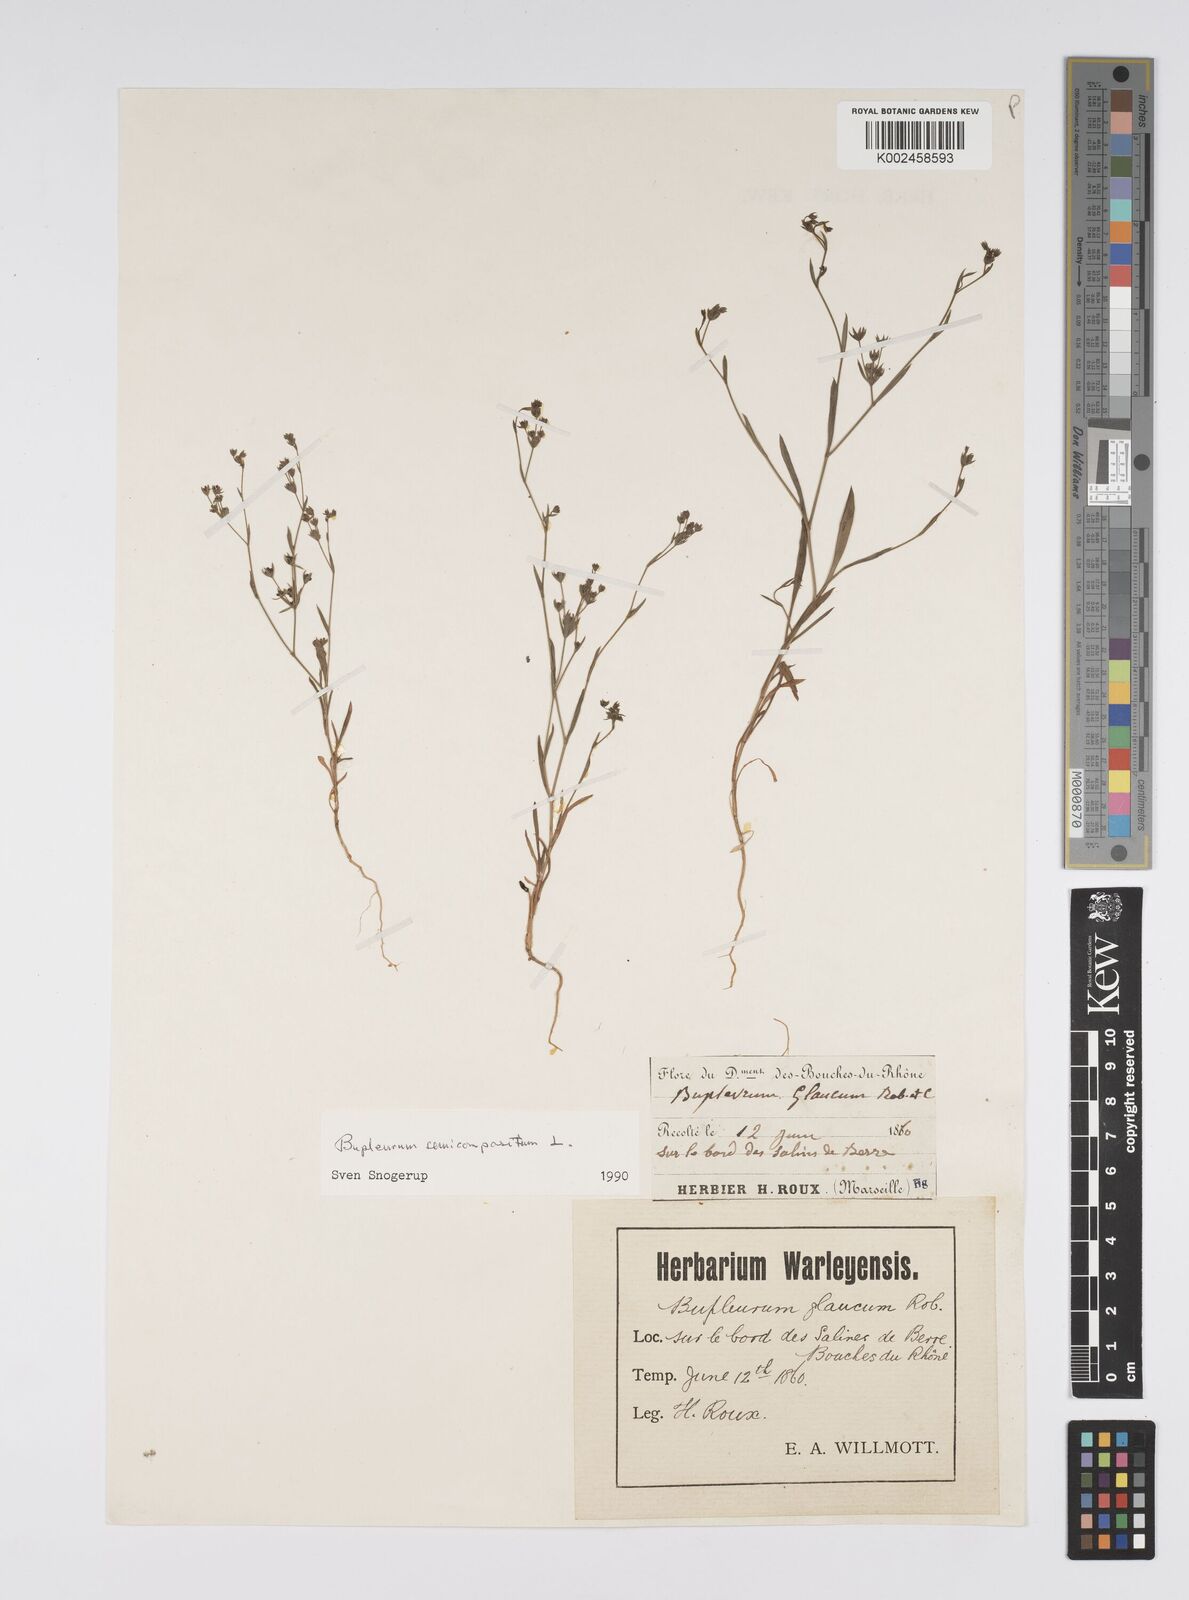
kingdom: Plantae
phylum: Tracheophyta
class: Magnoliopsida
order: Apiales
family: Apiaceae
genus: Bupleurum
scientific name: Bupleurum semicompositum
